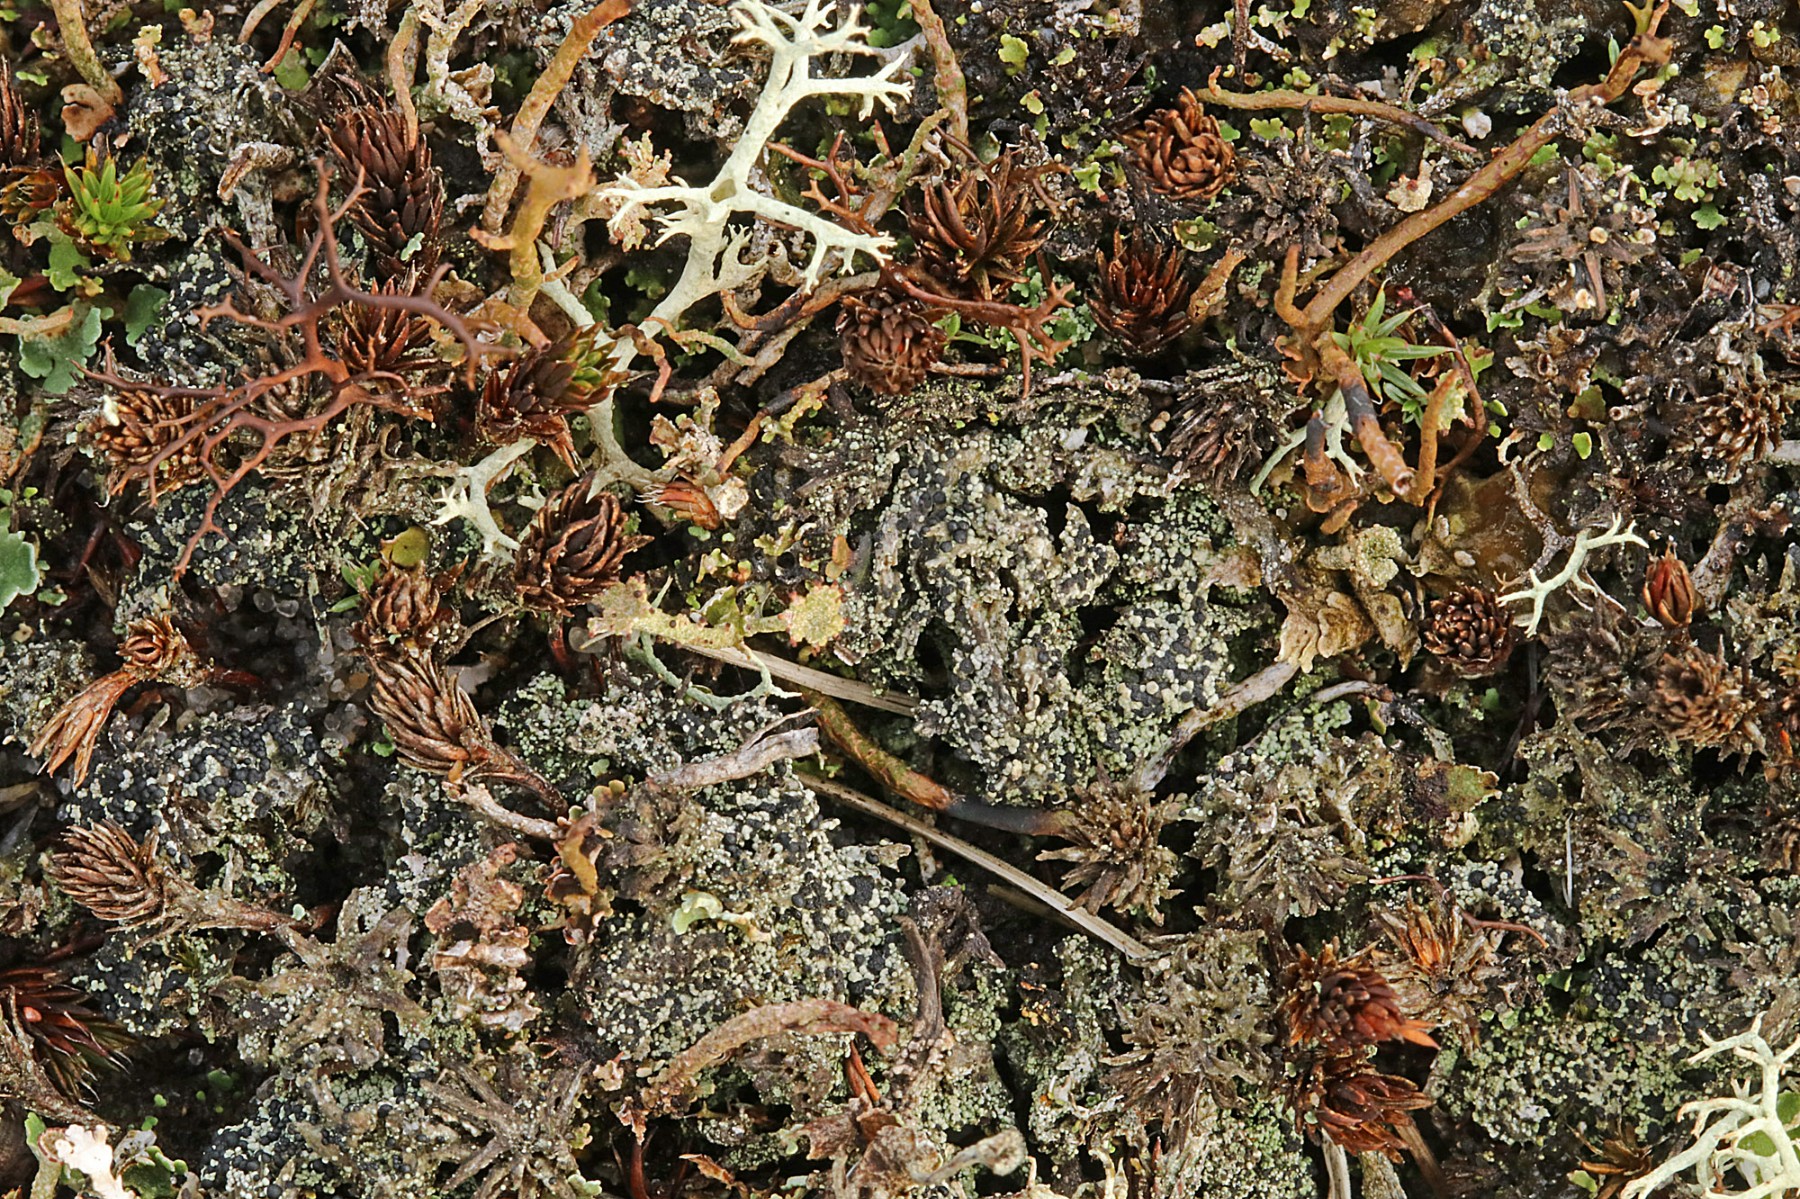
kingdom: Fungi
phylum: Ascomycota
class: Lecanoromycetes
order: Lecanorales
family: Byssolomataceae
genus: Micarea
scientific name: Micarea lignaria
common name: tørve-knaplav
